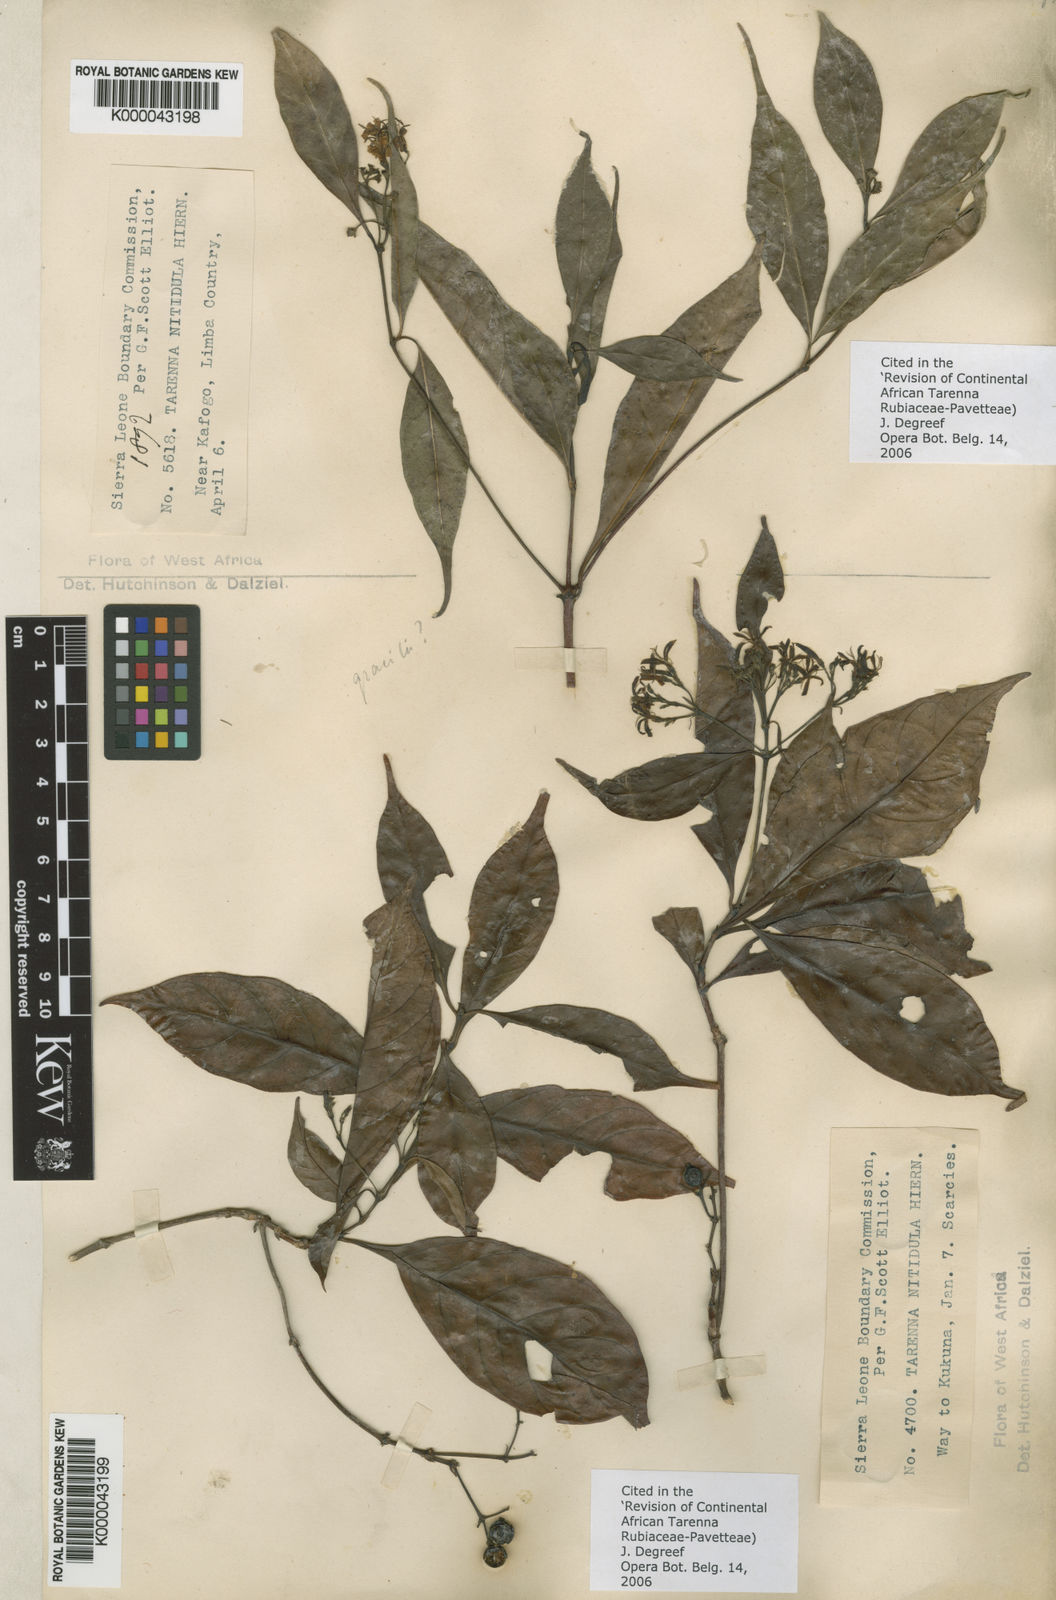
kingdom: Plantae
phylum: Tracheophyta
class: Magnoliopsida
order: Gentianales
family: Rubiaceae
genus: Tarenna
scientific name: Tarenna nitidula
